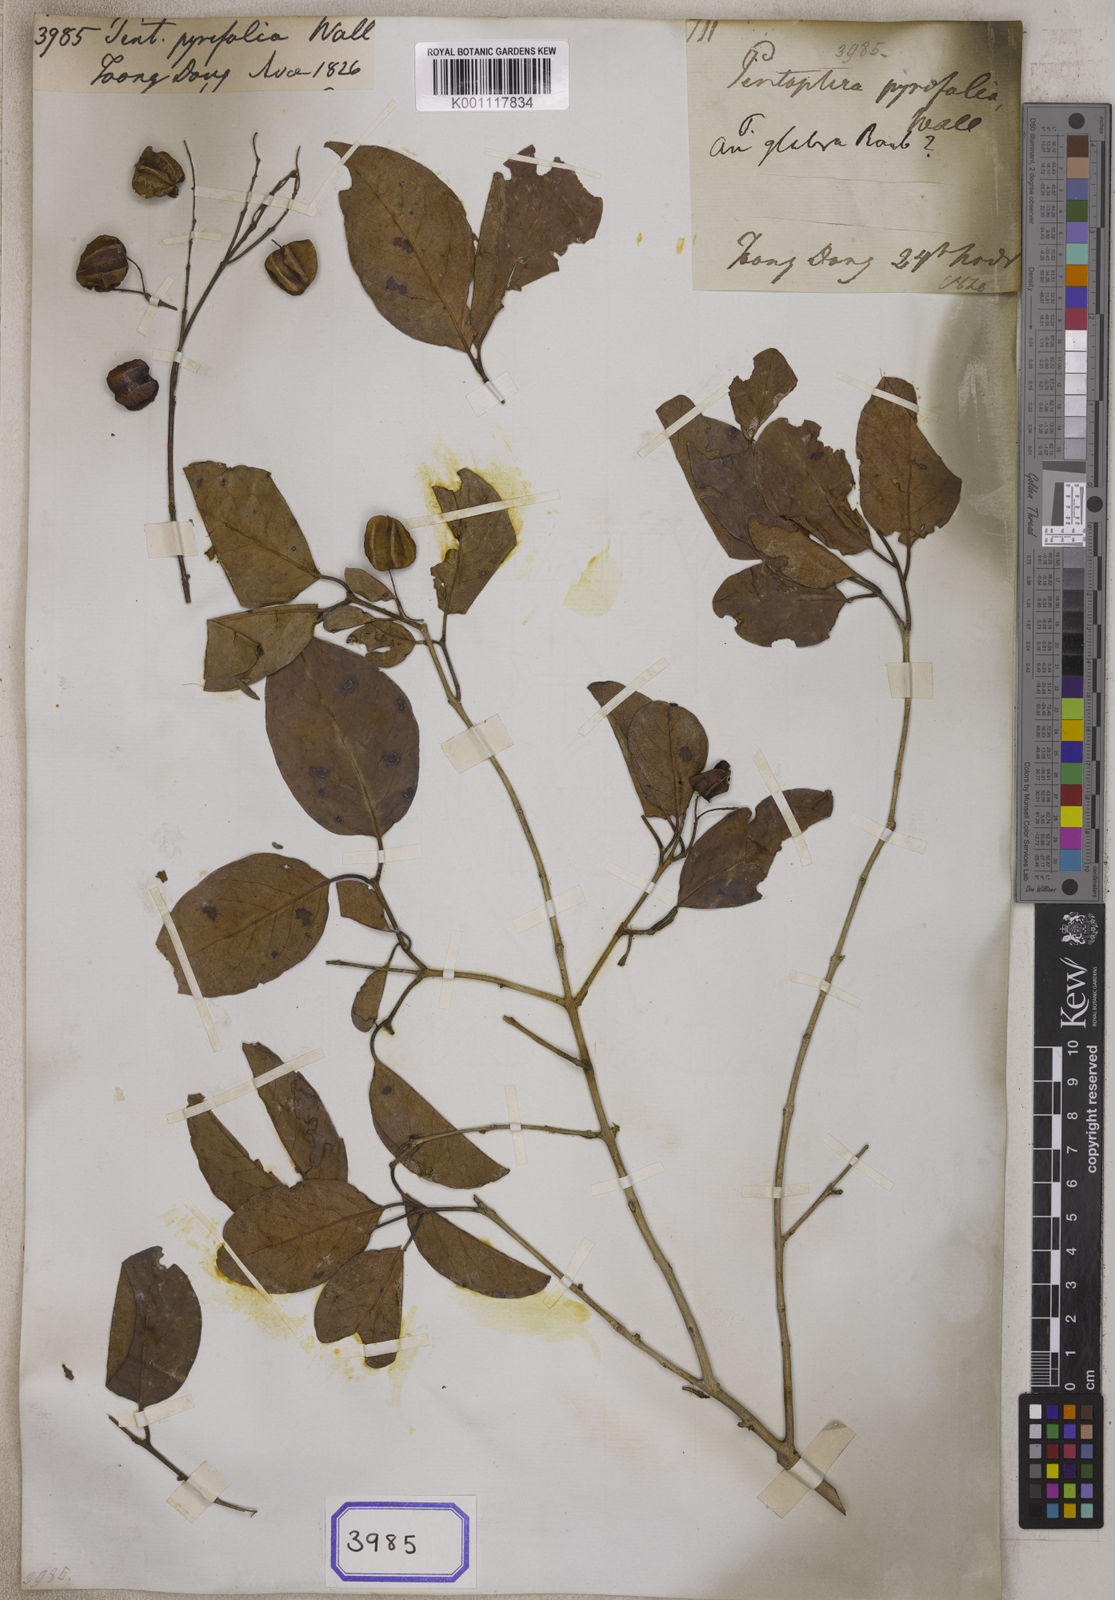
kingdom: Plantae
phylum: Tracheophyta
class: Magnoliopsida
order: Myrtales
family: Combretaceae
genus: Terminalia
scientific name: Terminalia
